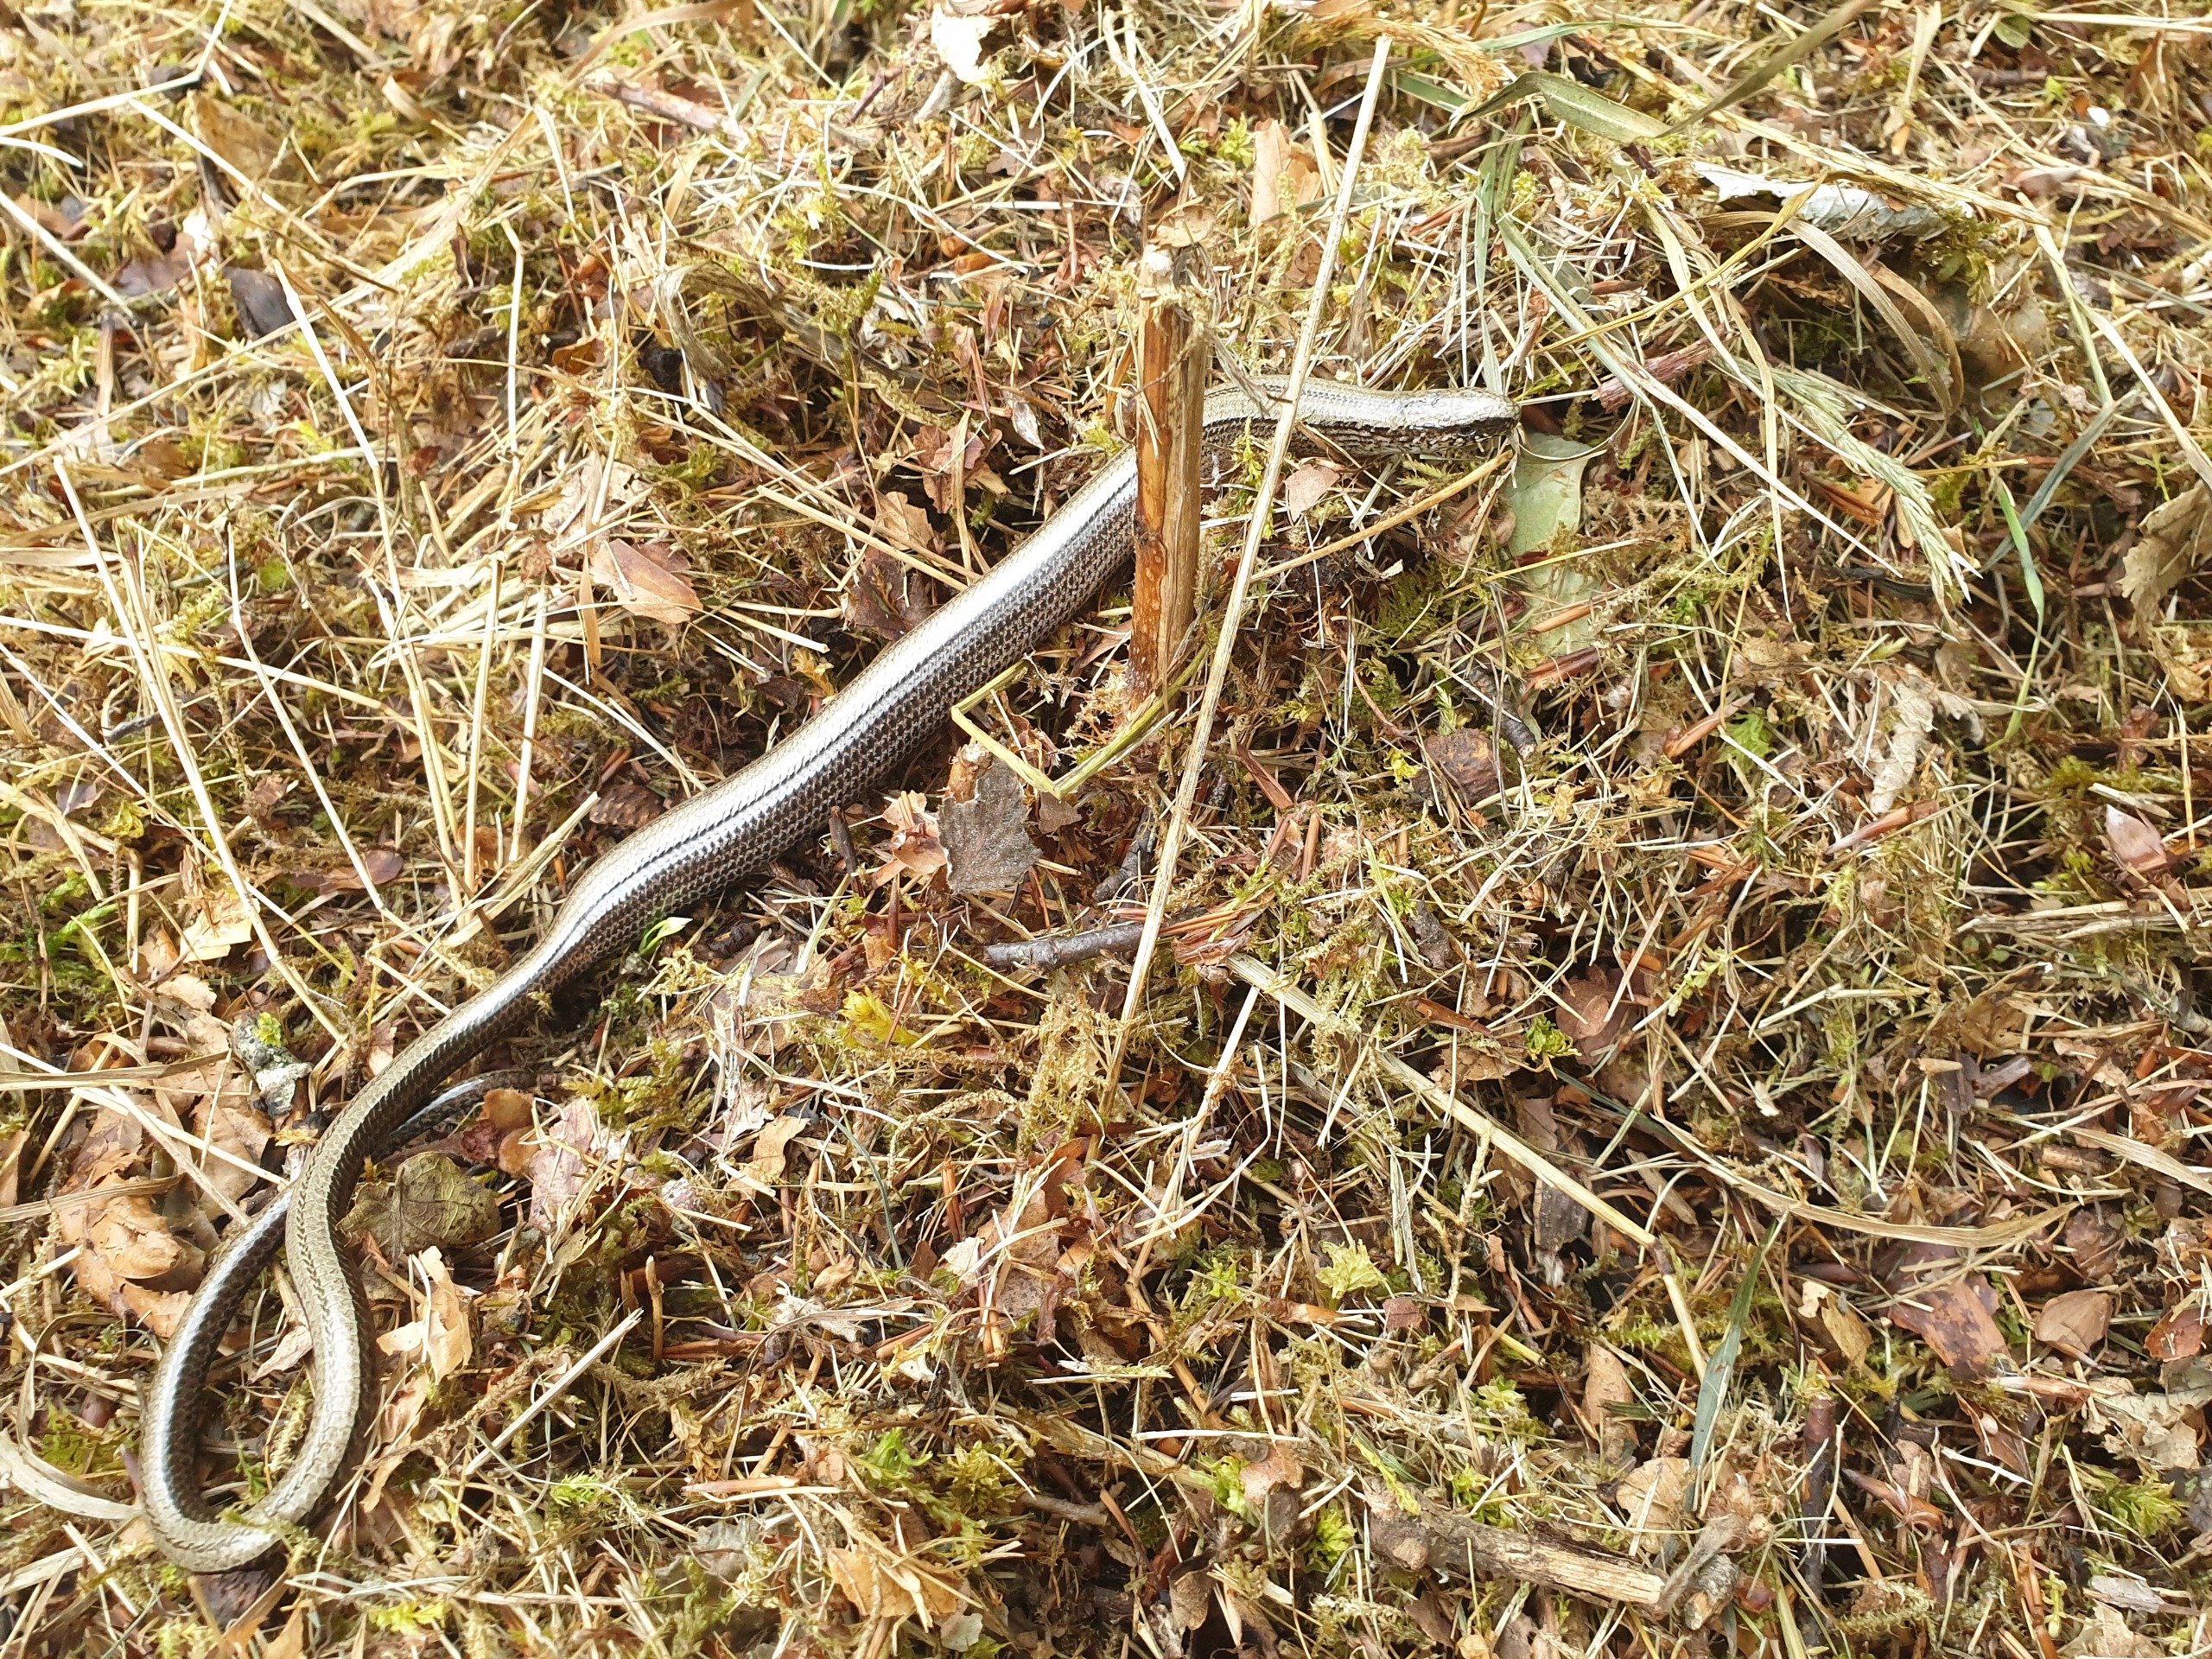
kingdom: Animalia
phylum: Chordata
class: Squamata
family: Anguidae
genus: Anguis
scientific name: Anguis fragilis
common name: Stålorm
